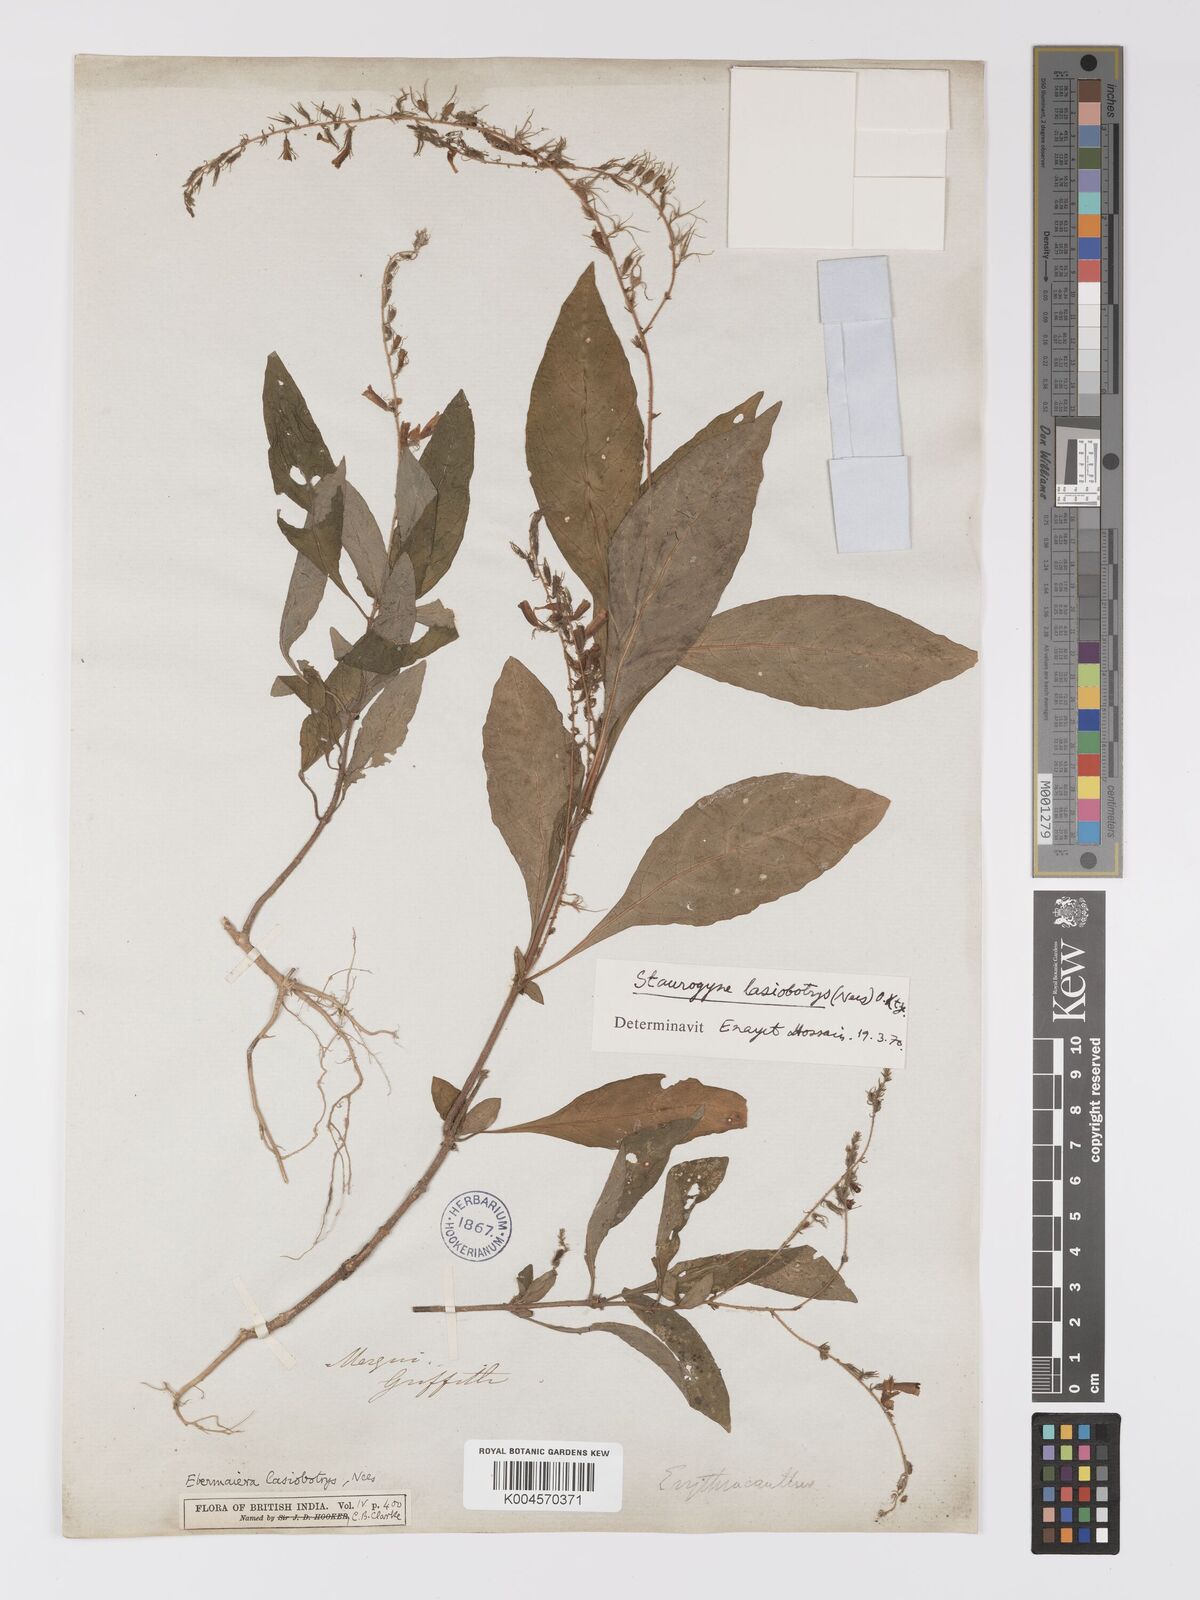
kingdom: Plantae
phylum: Tracheophyta
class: Magnoliopsida
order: Lamiales
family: Acanthaceae
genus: Staurogyne
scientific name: Staurogyne lasiobotrys
